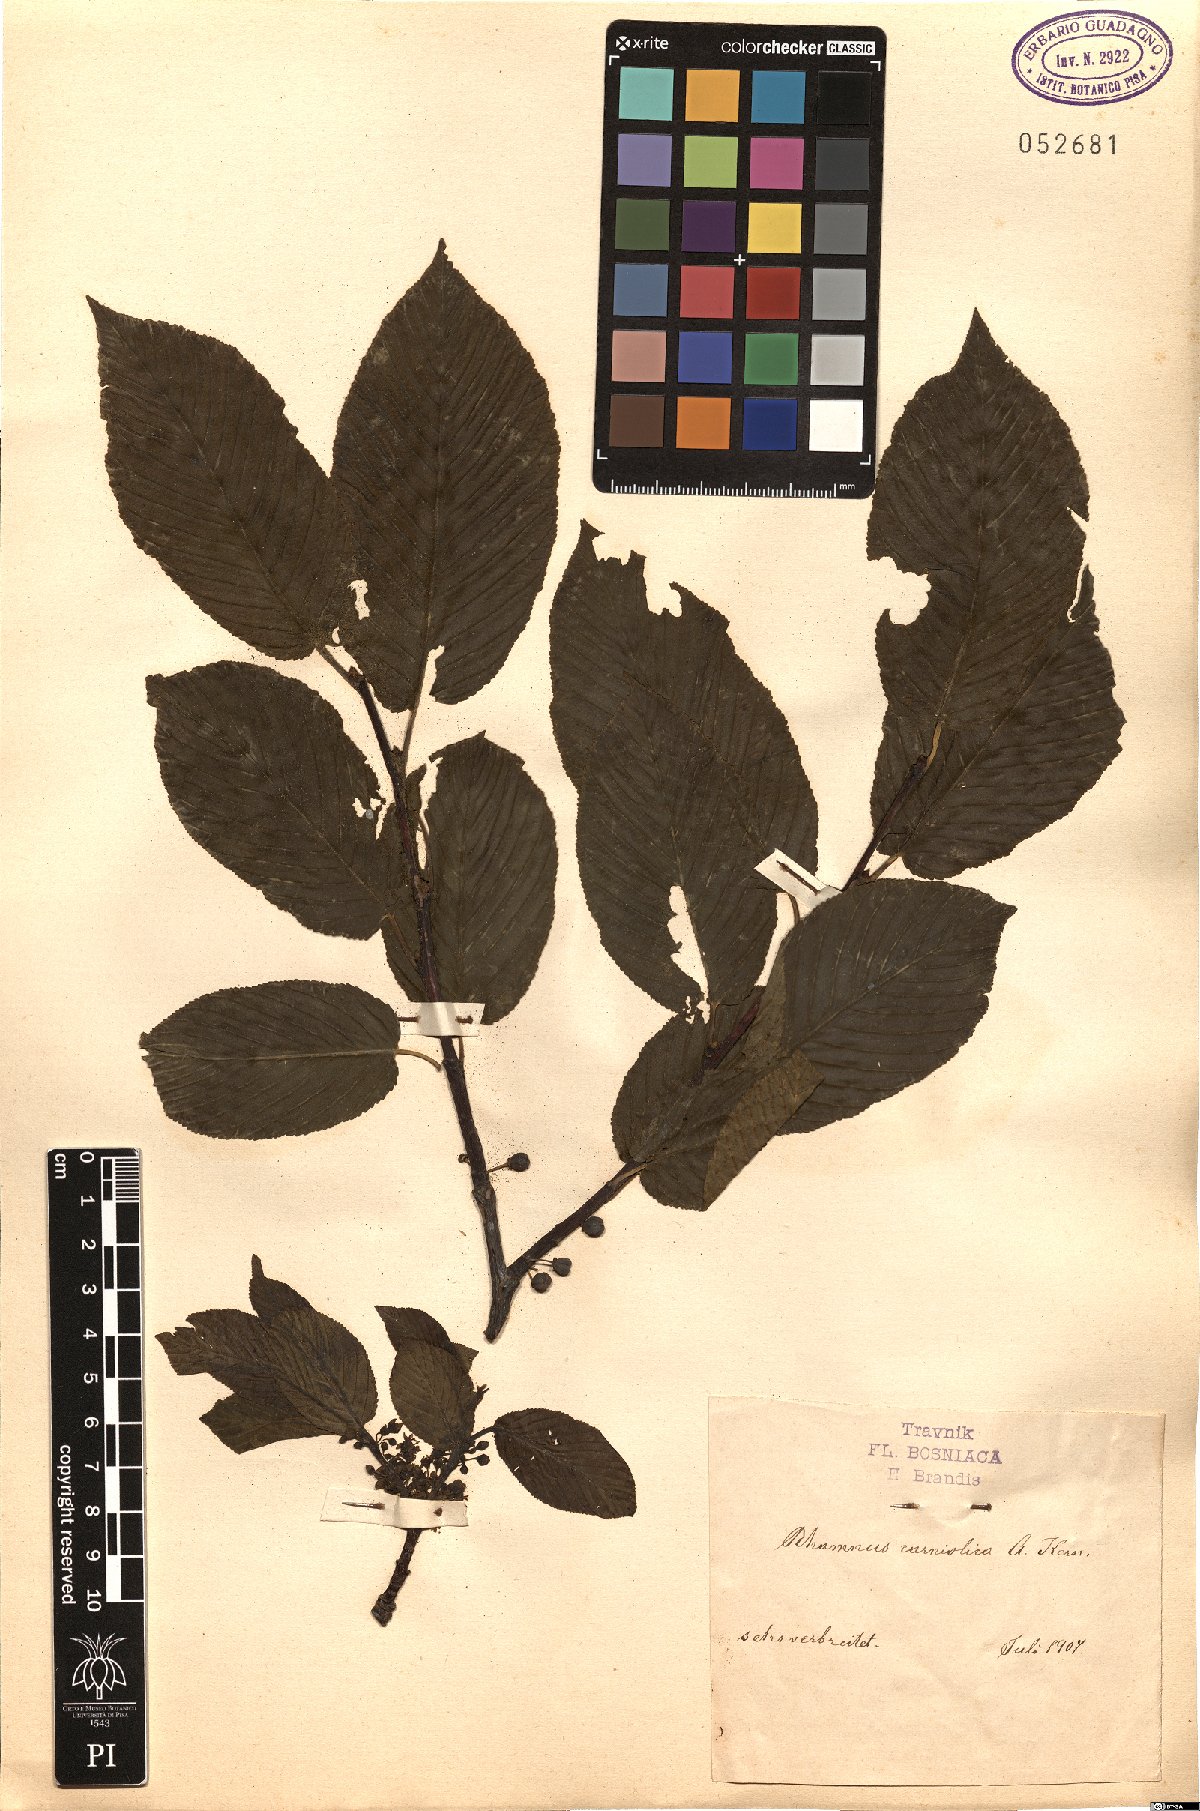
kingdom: Plantae
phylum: Tracheophyta
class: Magnoliopsida
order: Rosales
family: Rhamnaceae
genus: Rhamnus
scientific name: Rhamnus saxatilis
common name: Rock buckthorn
